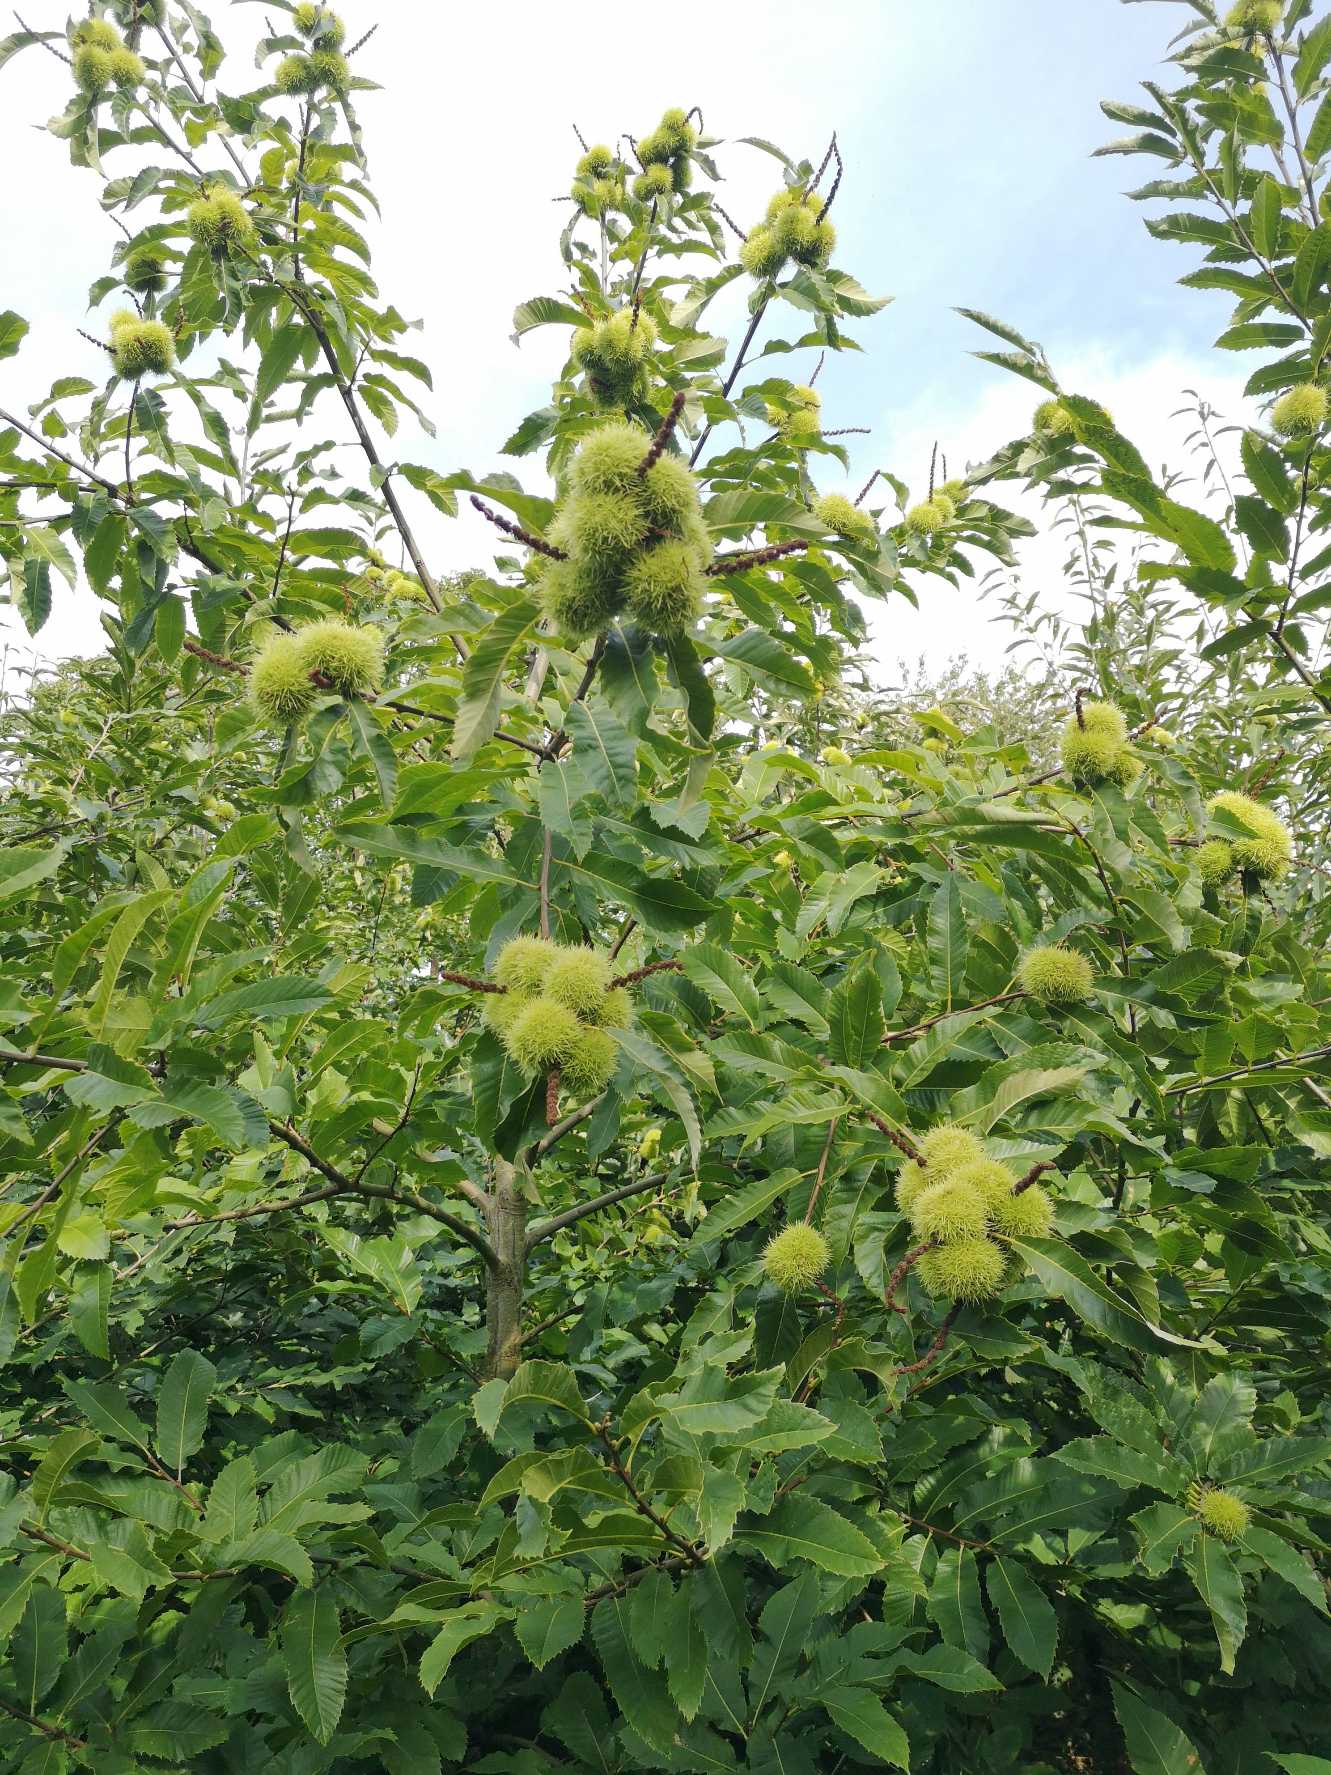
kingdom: Plantae
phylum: Tracheophyta
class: Magnoliopsida
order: Fagales
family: Fagaceae
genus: Castanea
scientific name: Castanea sativa
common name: Ægte kastanie
